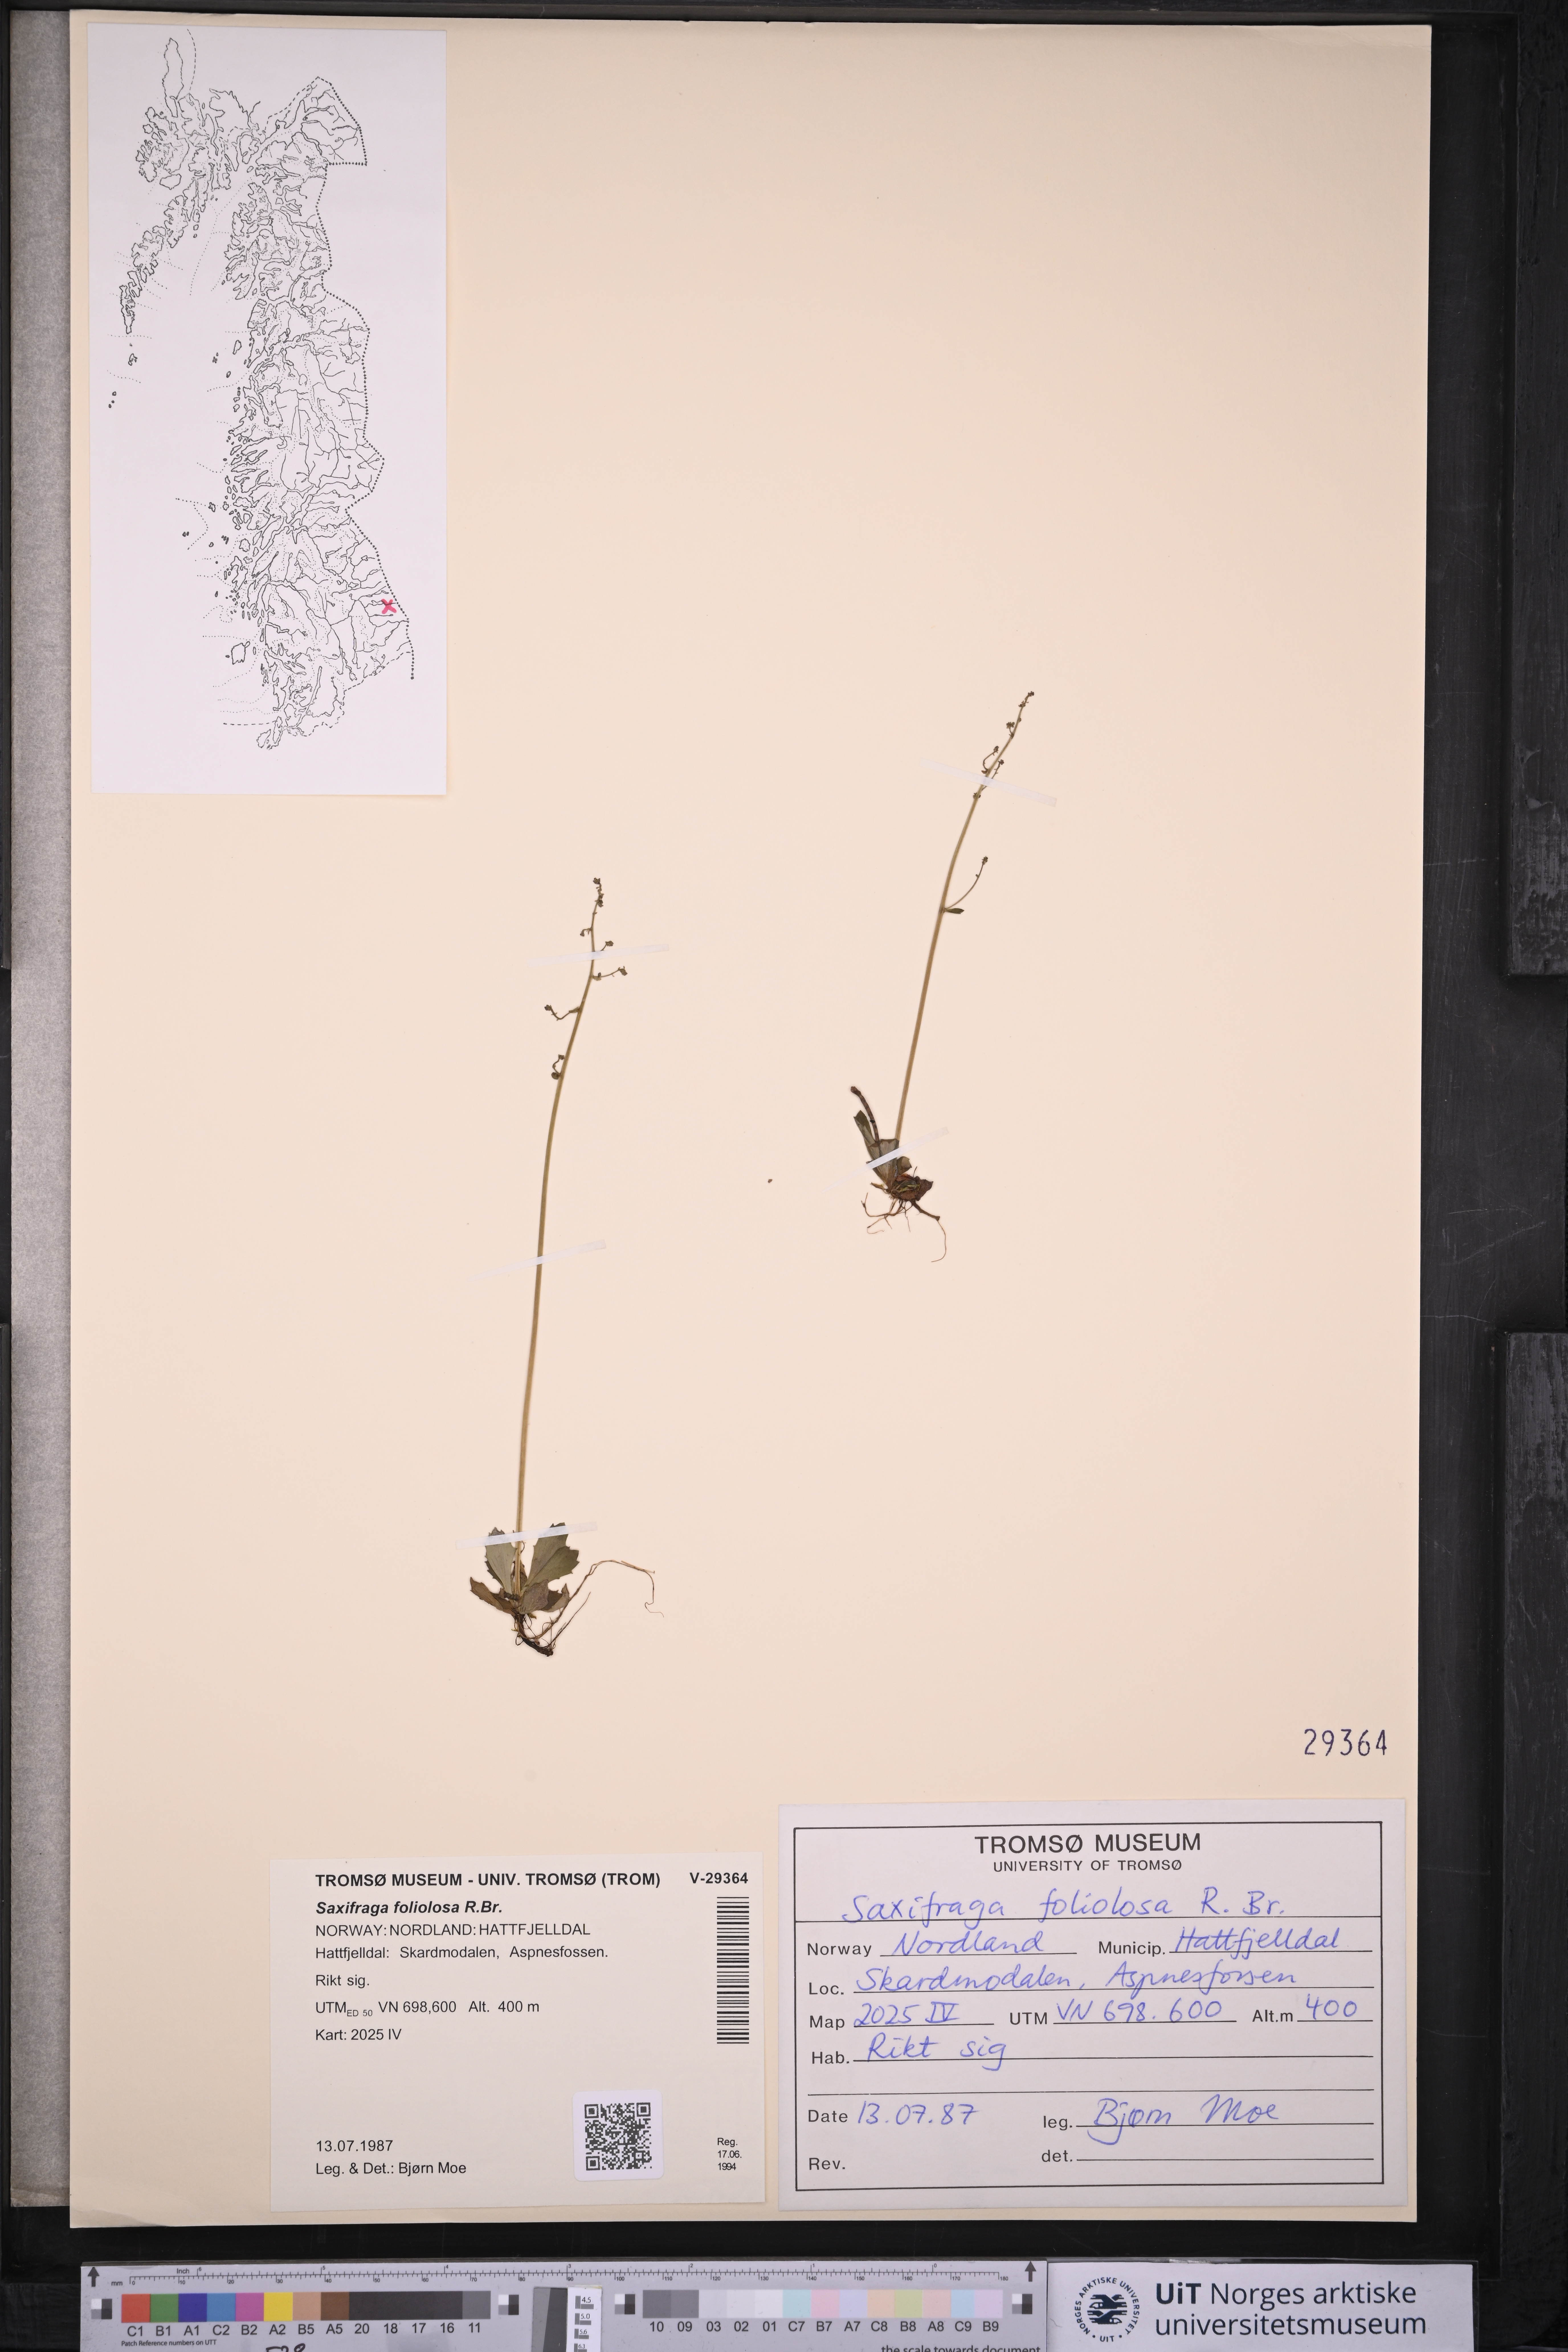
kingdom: Plantae
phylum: Tracheophyta
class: Magnoliopsida
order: Saxifragales
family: Saxifragaceae
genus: Micranthes
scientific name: Micranthes foliolosa
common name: Leafystem saxifrage
